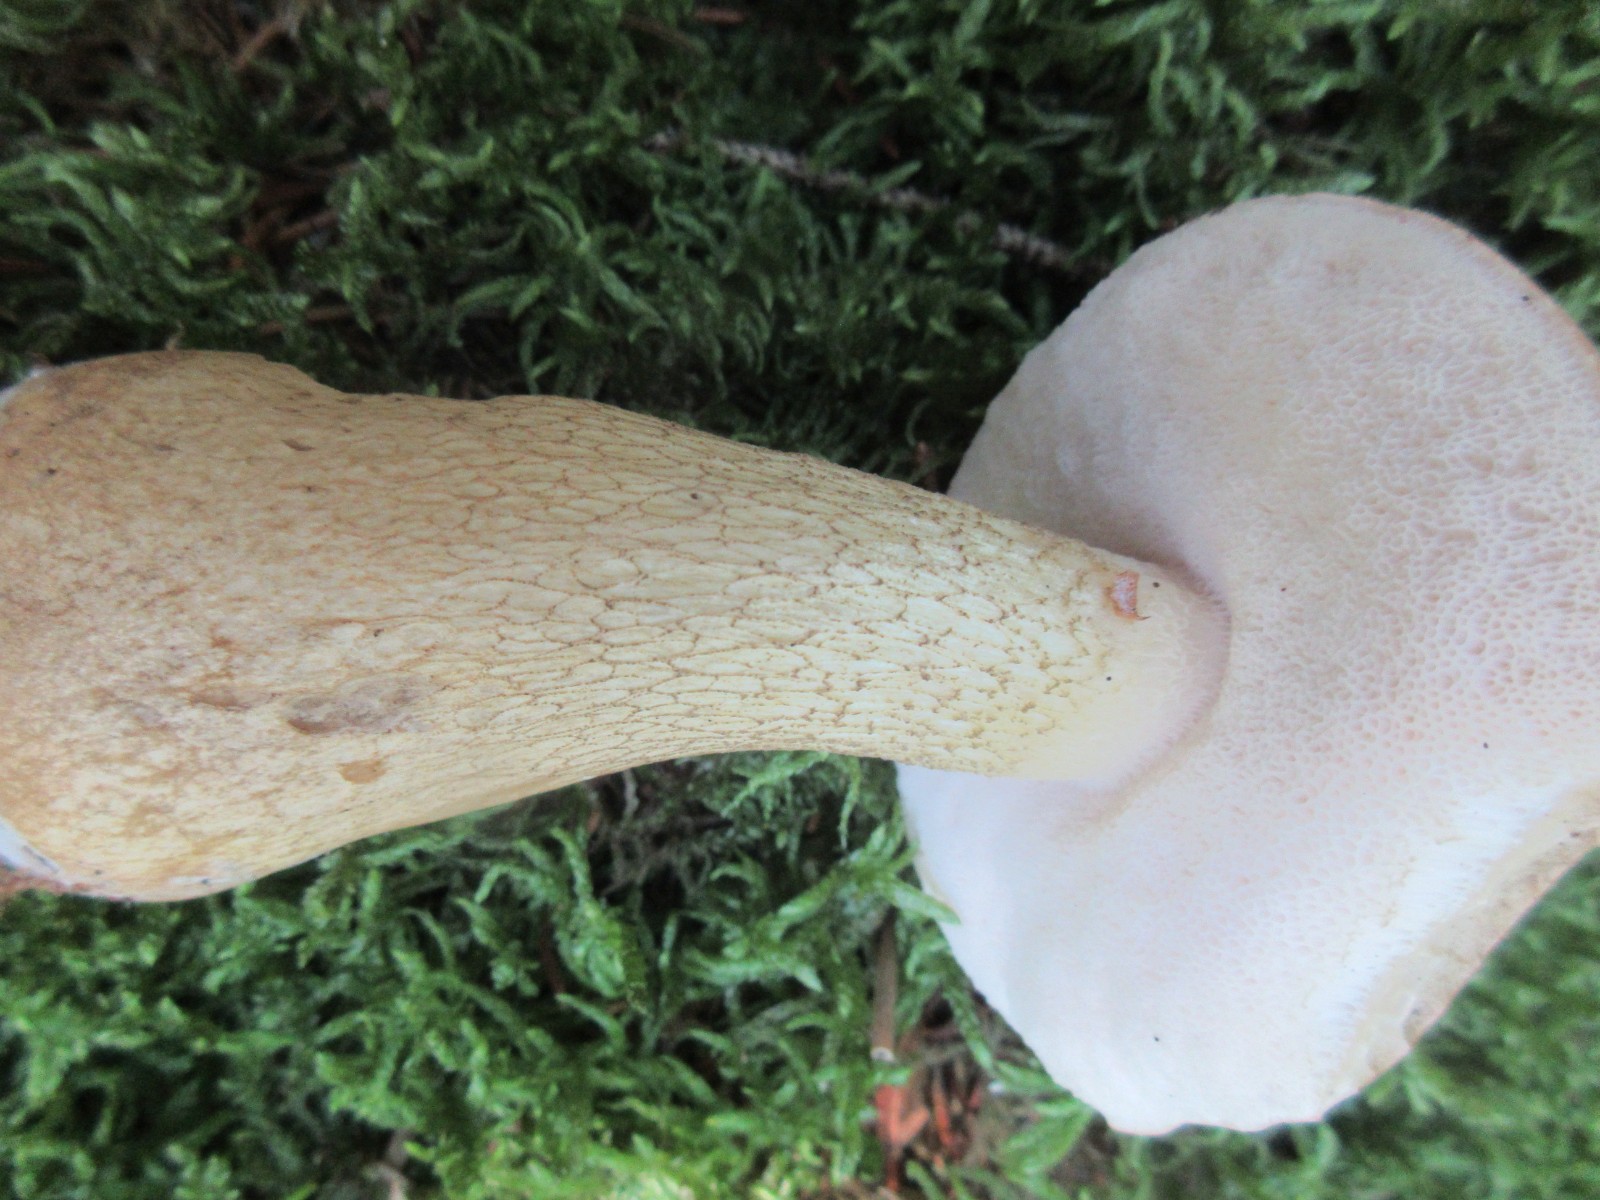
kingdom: Fungi
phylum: Basidiomycota
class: Agaricomycetes
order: Boletales
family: Boletaceae
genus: Tylopilus
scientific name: Tylopilus felleus
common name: galderørhat
